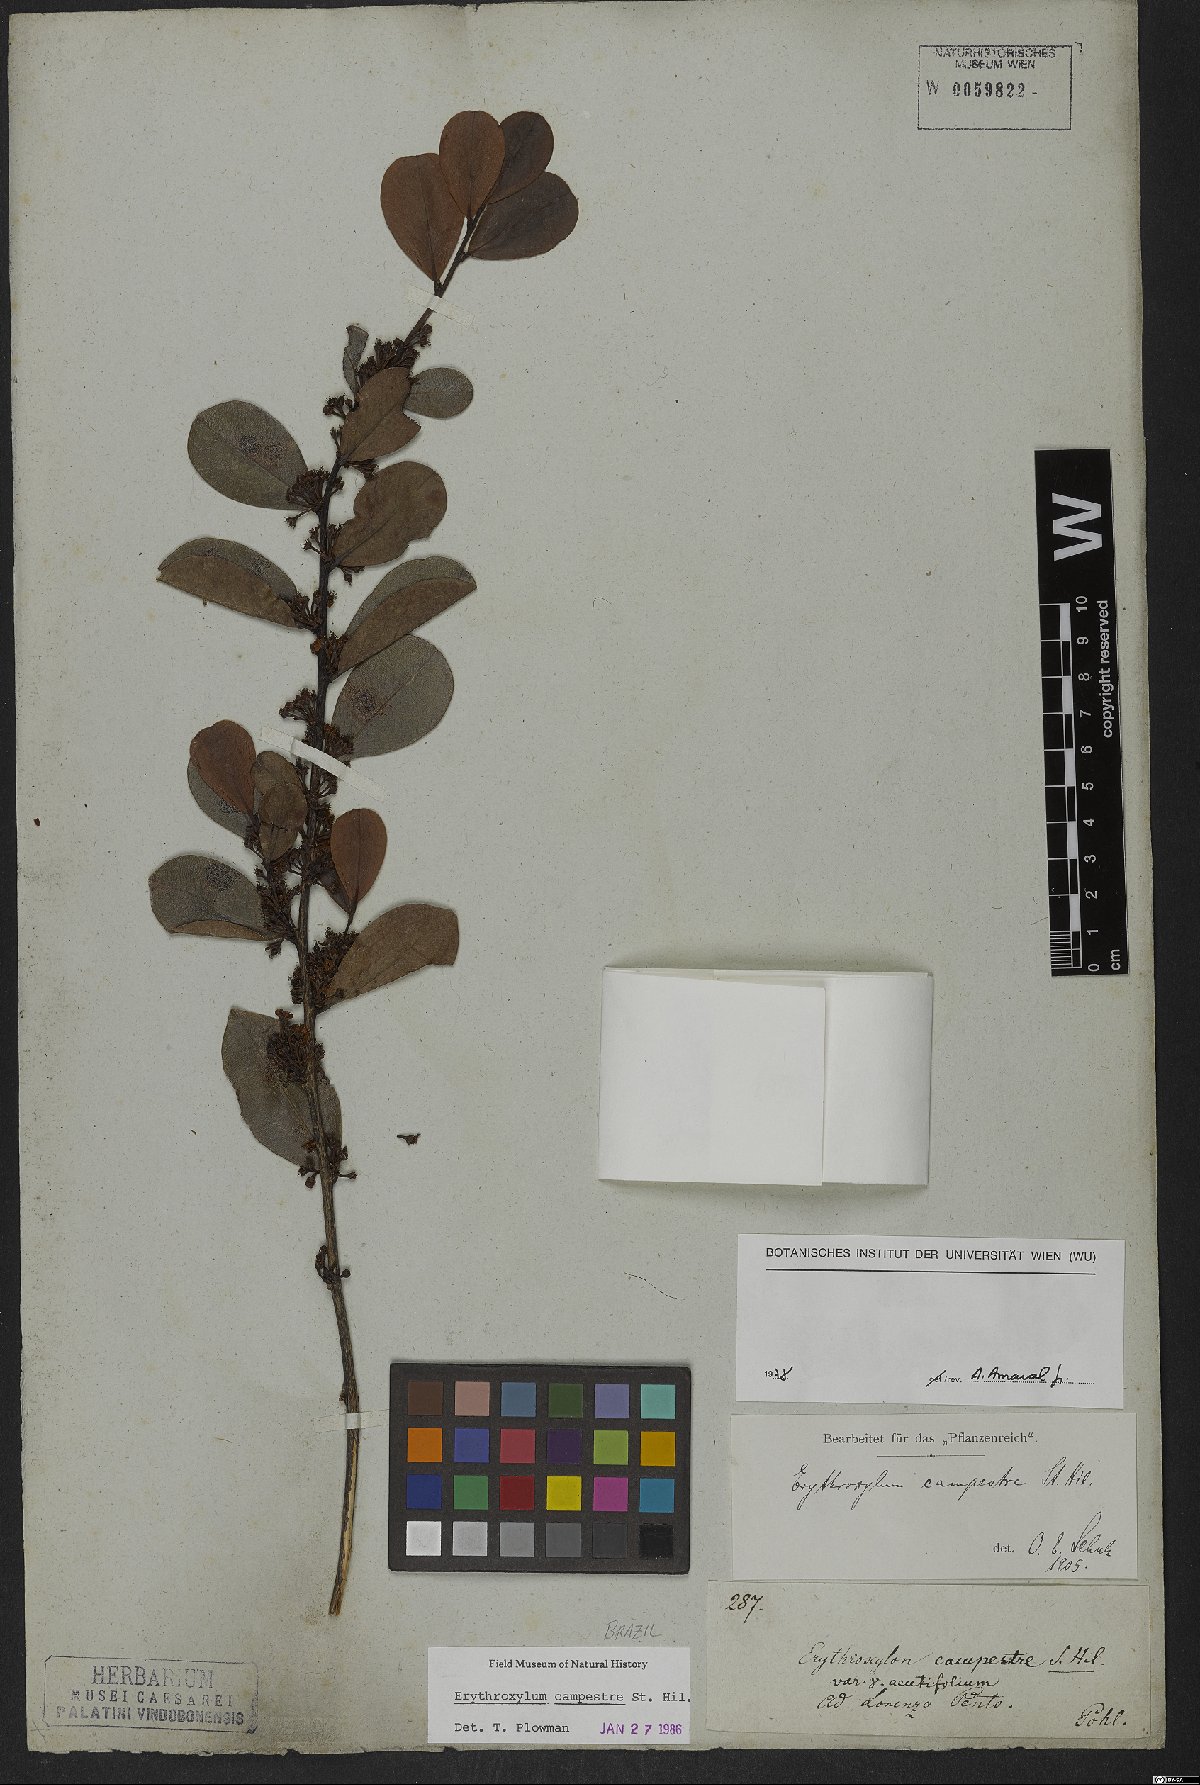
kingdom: Plantae
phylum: Tracheophyta
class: Magnoliopsida
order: Malpighiales
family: Erythroxylaceae
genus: Erythroxylum
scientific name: Erythroxylum campestre
